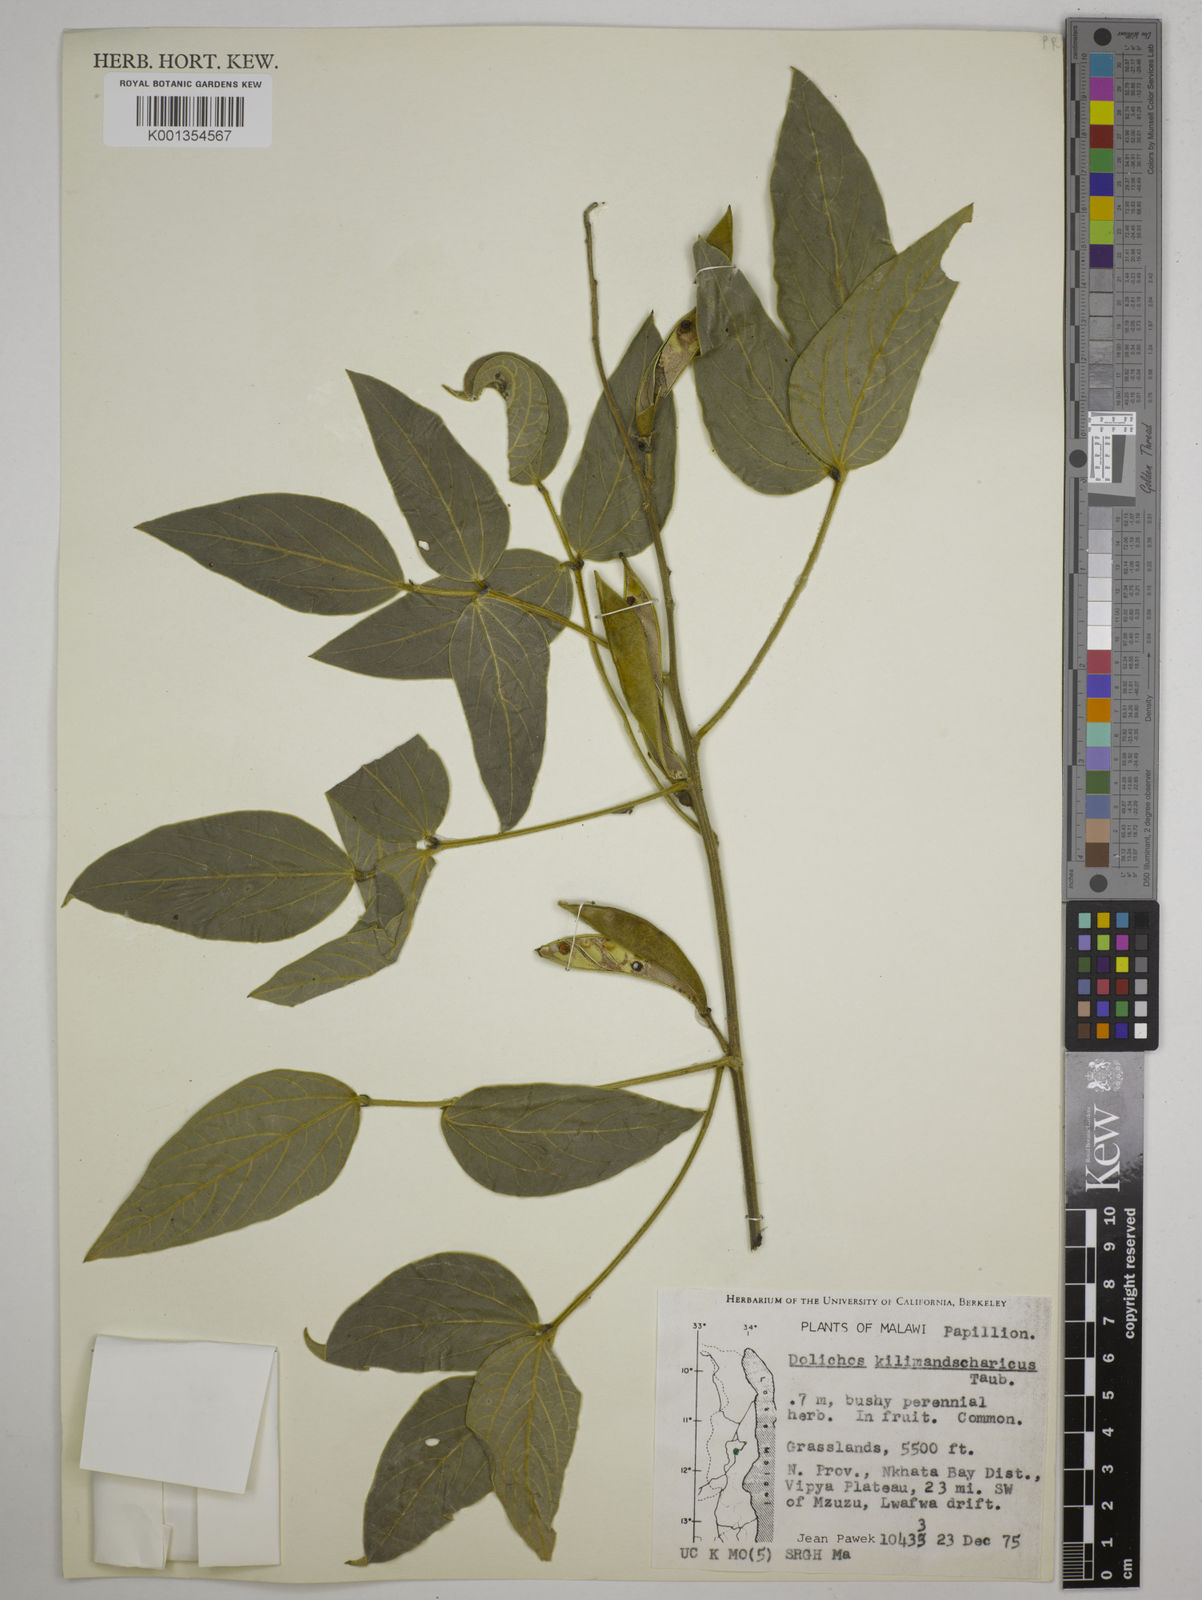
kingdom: Plantae
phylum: Tracheophyta
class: Magnoliopsida
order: Fabales
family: Fabaceae
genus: Dolichos
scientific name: Dolichos kilimandscharicus
